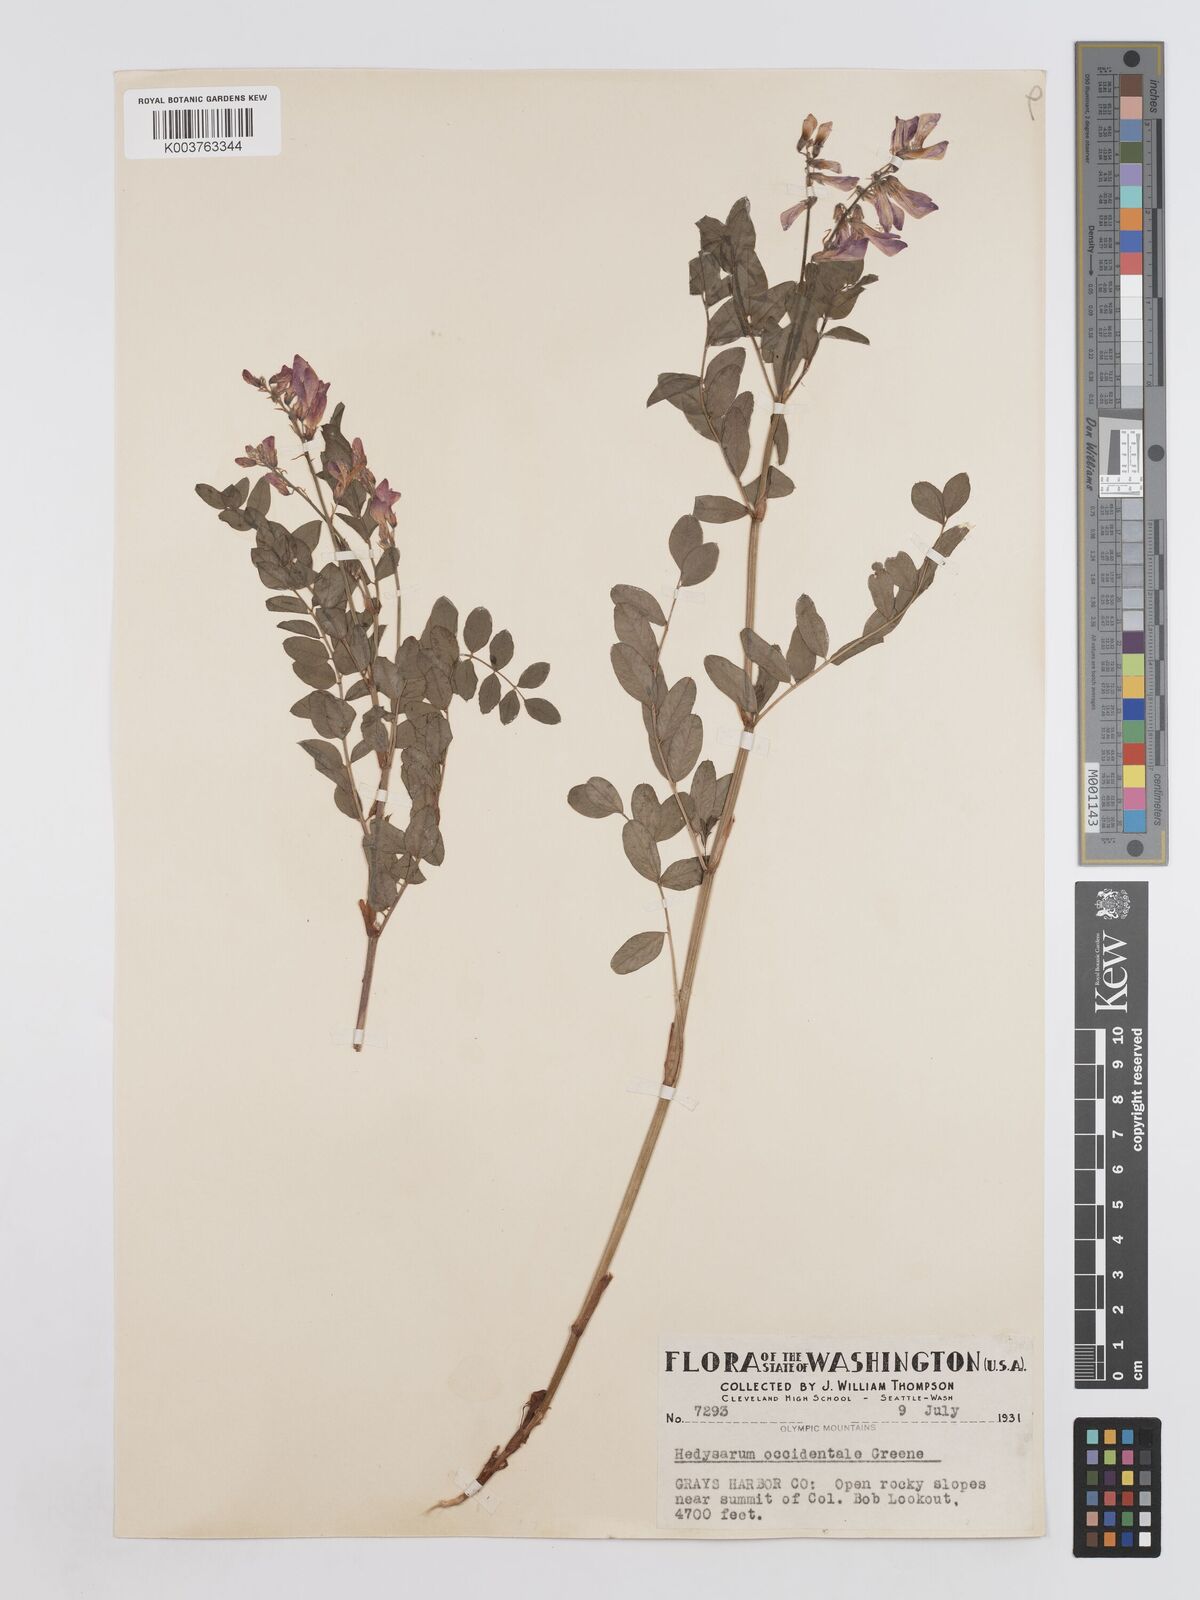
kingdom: Plantae
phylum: Tracheophyta
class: Magnoliopsida
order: Fabales
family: Fabaceae
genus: Hedysarum
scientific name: Hedysarum occidentale
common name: Western hedysarum
